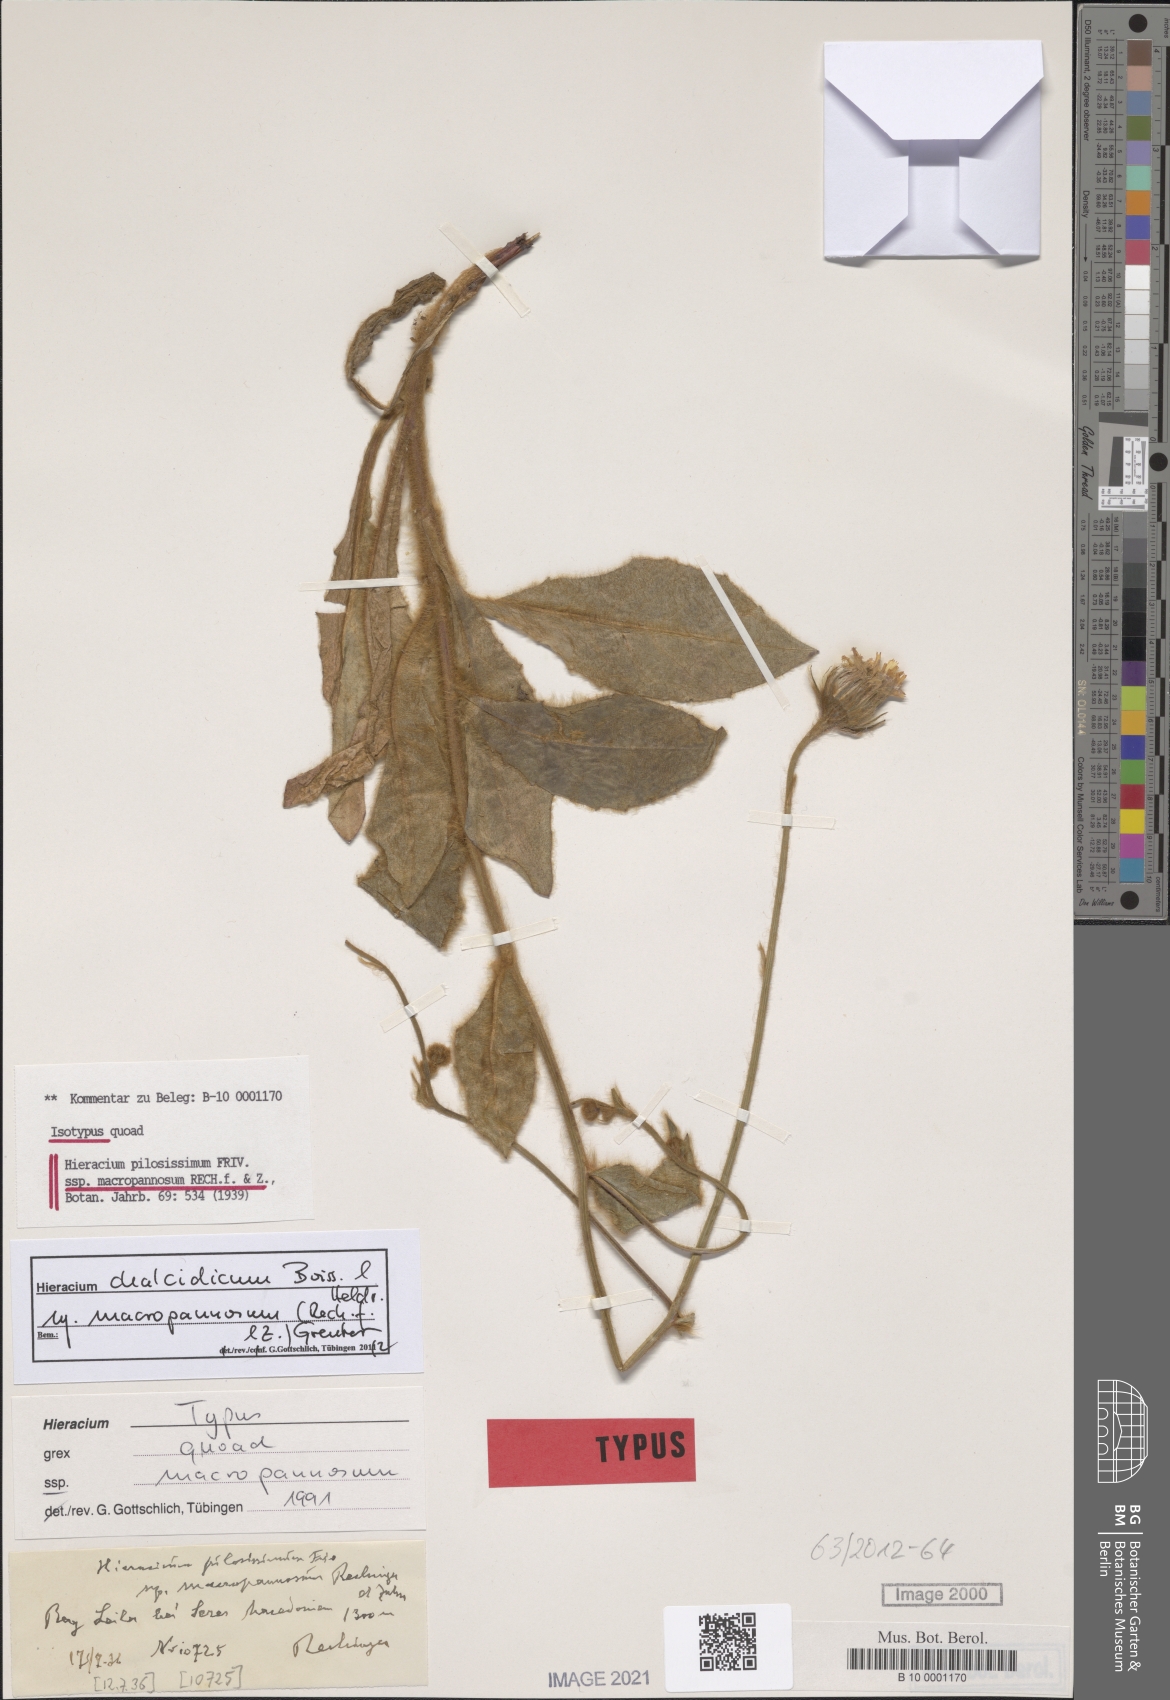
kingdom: Plantae
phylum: Tracheophyta
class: Magnoliopsida
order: Asterales
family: Asteraceae
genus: Hieracium
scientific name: Hieracium pilosissimum
